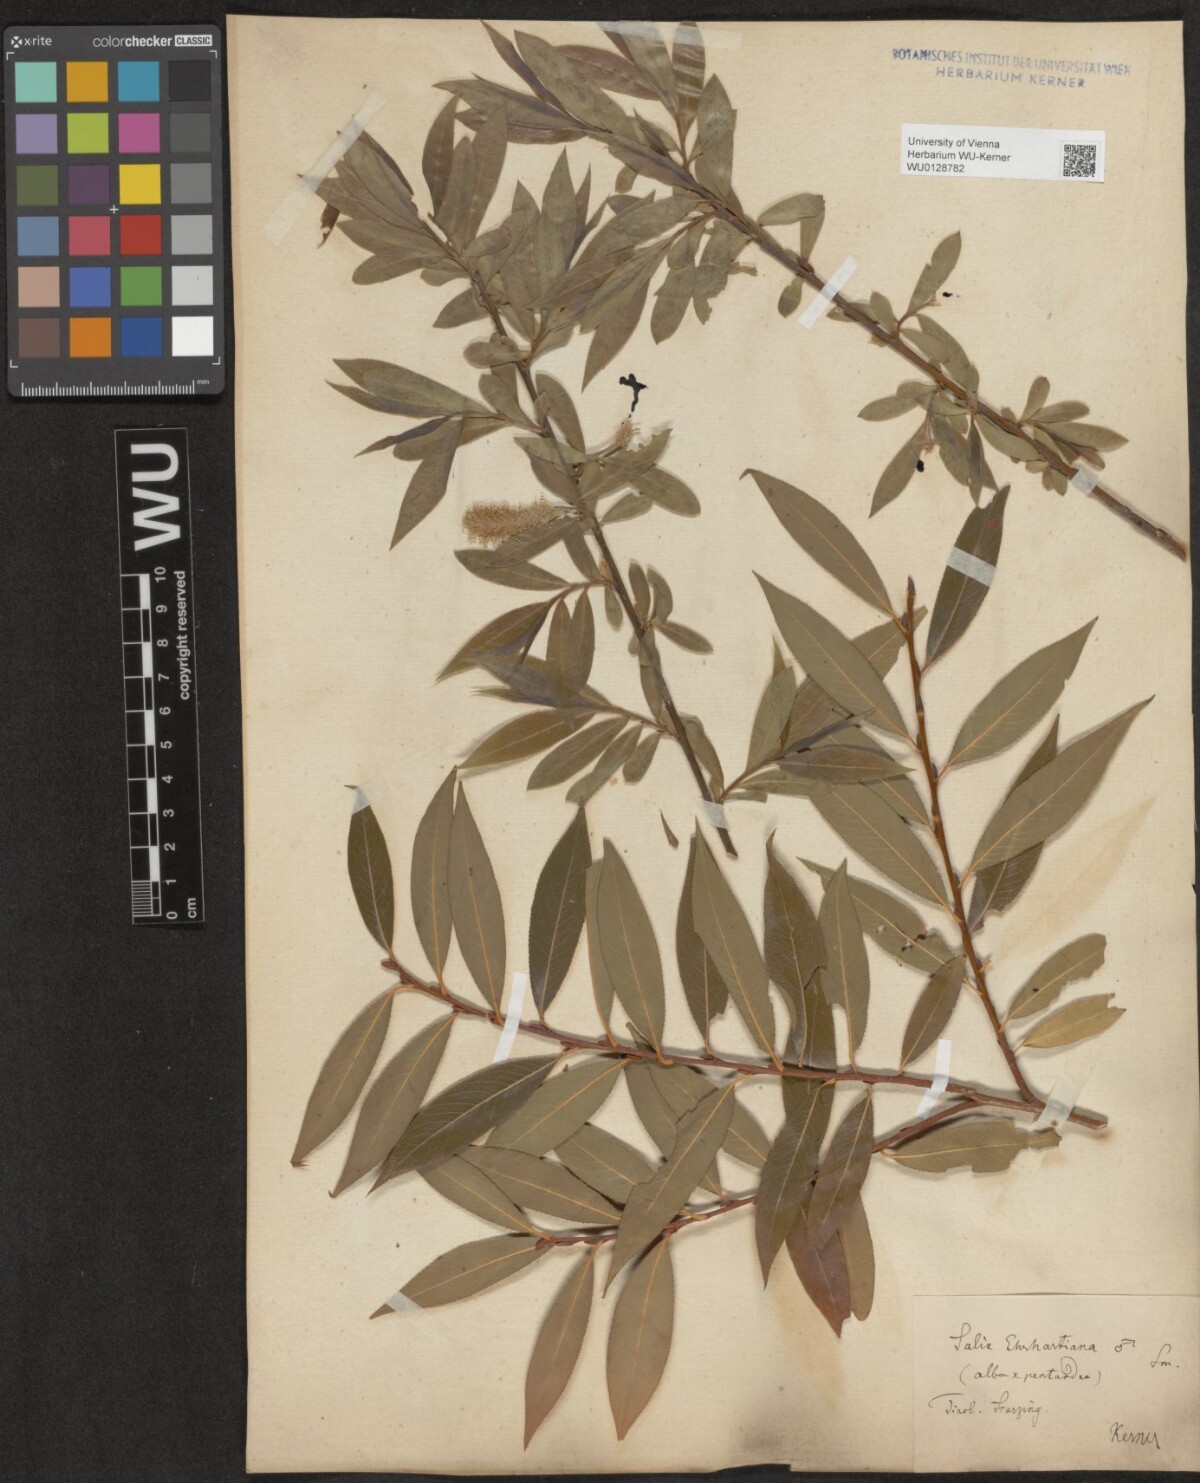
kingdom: Plantae
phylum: Tracheophyta
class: Magnoliopsida
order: Malpighiales
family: Salicaceae
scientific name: Salicaceae
